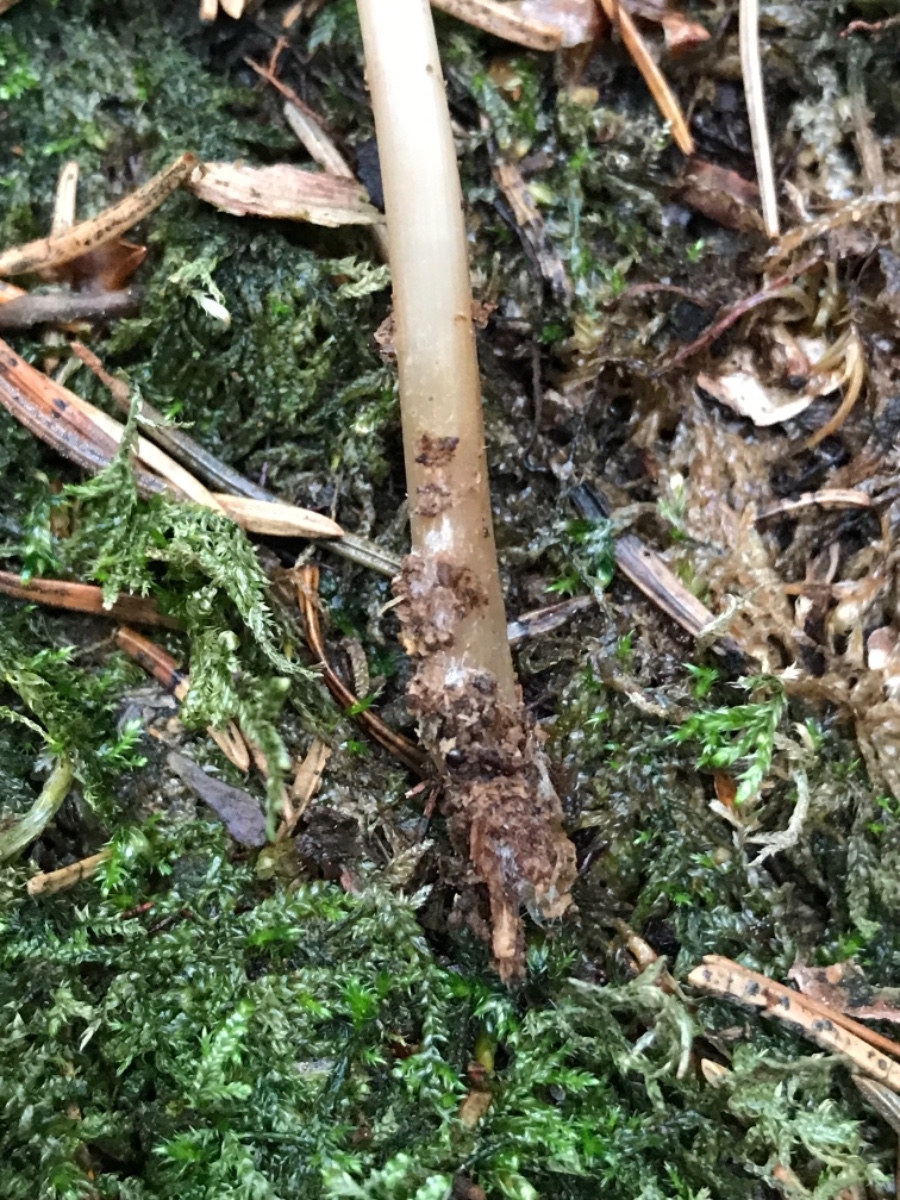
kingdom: Fungi
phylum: Basidiomycota
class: Agaricomycetes
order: Agaricales
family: Mycenaceae
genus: Mycena
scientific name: Mycena
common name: huesvamp
